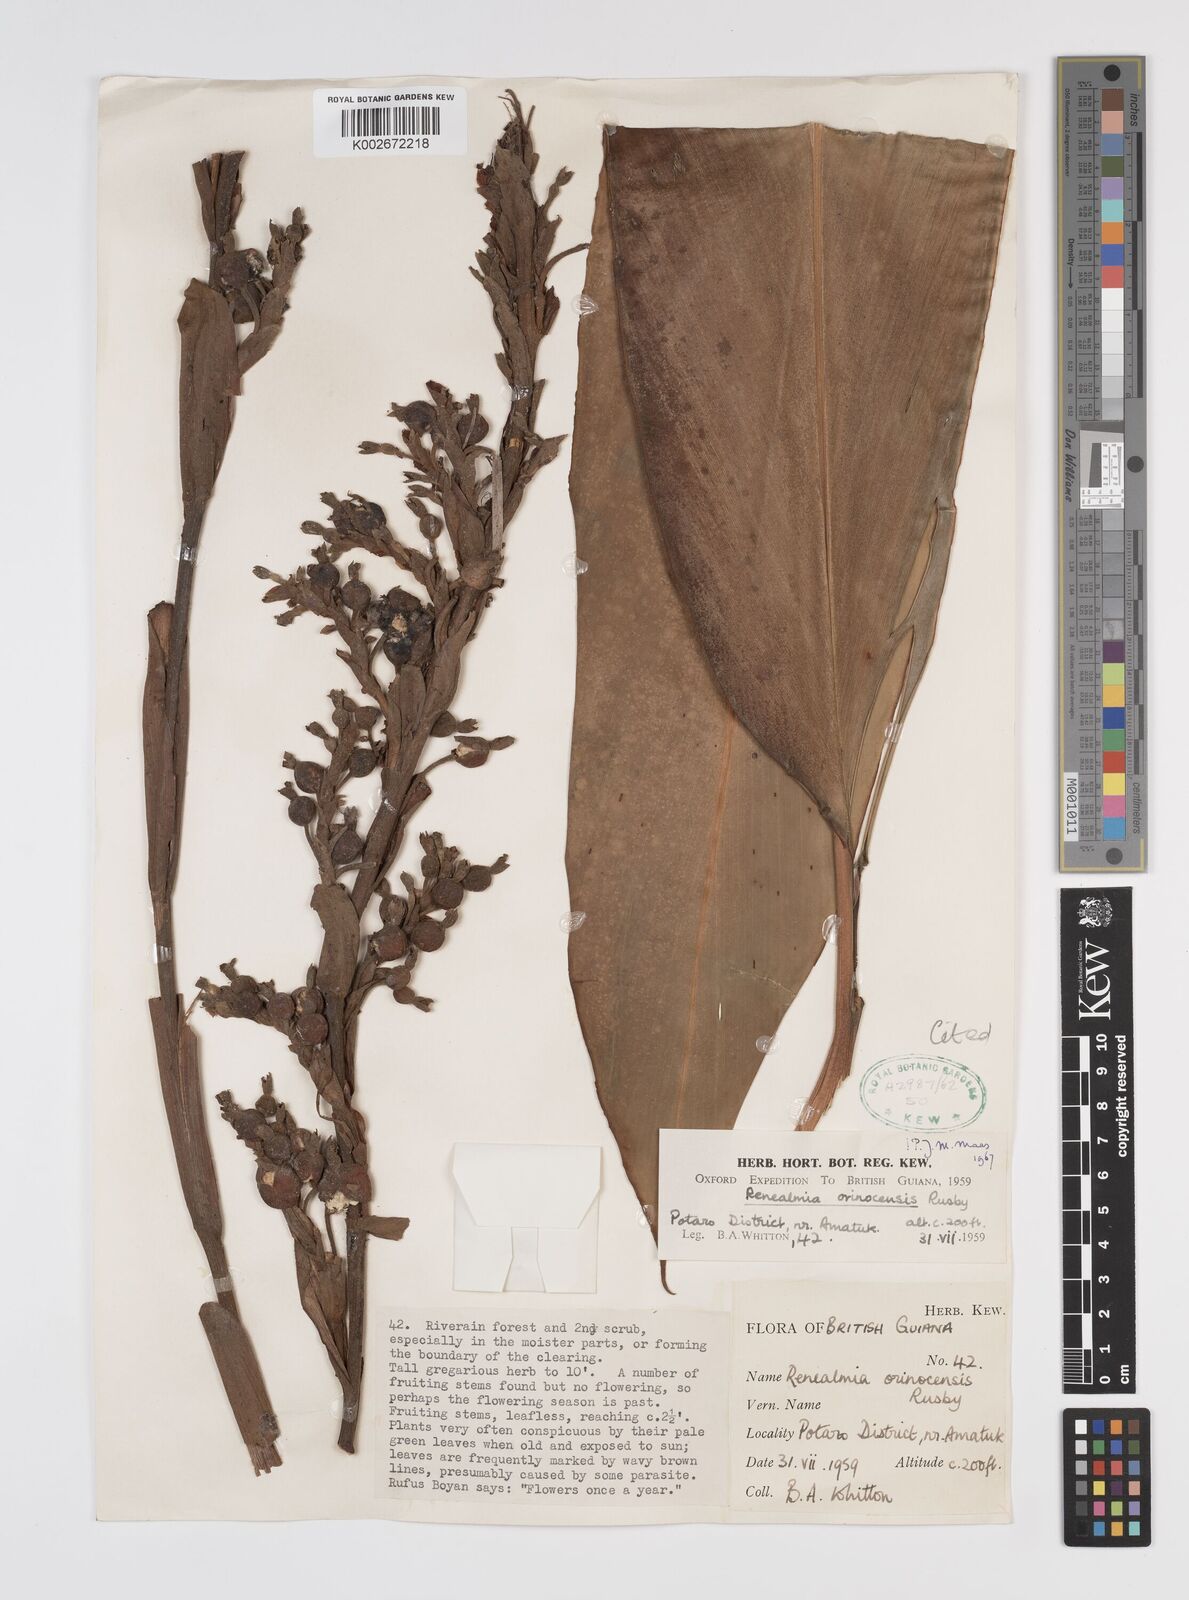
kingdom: Plantae
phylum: Tracheophyta
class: Liliopsida
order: Zingiberales
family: Zingiberaceae
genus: Renealmia
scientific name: Renealmia orinocensis
